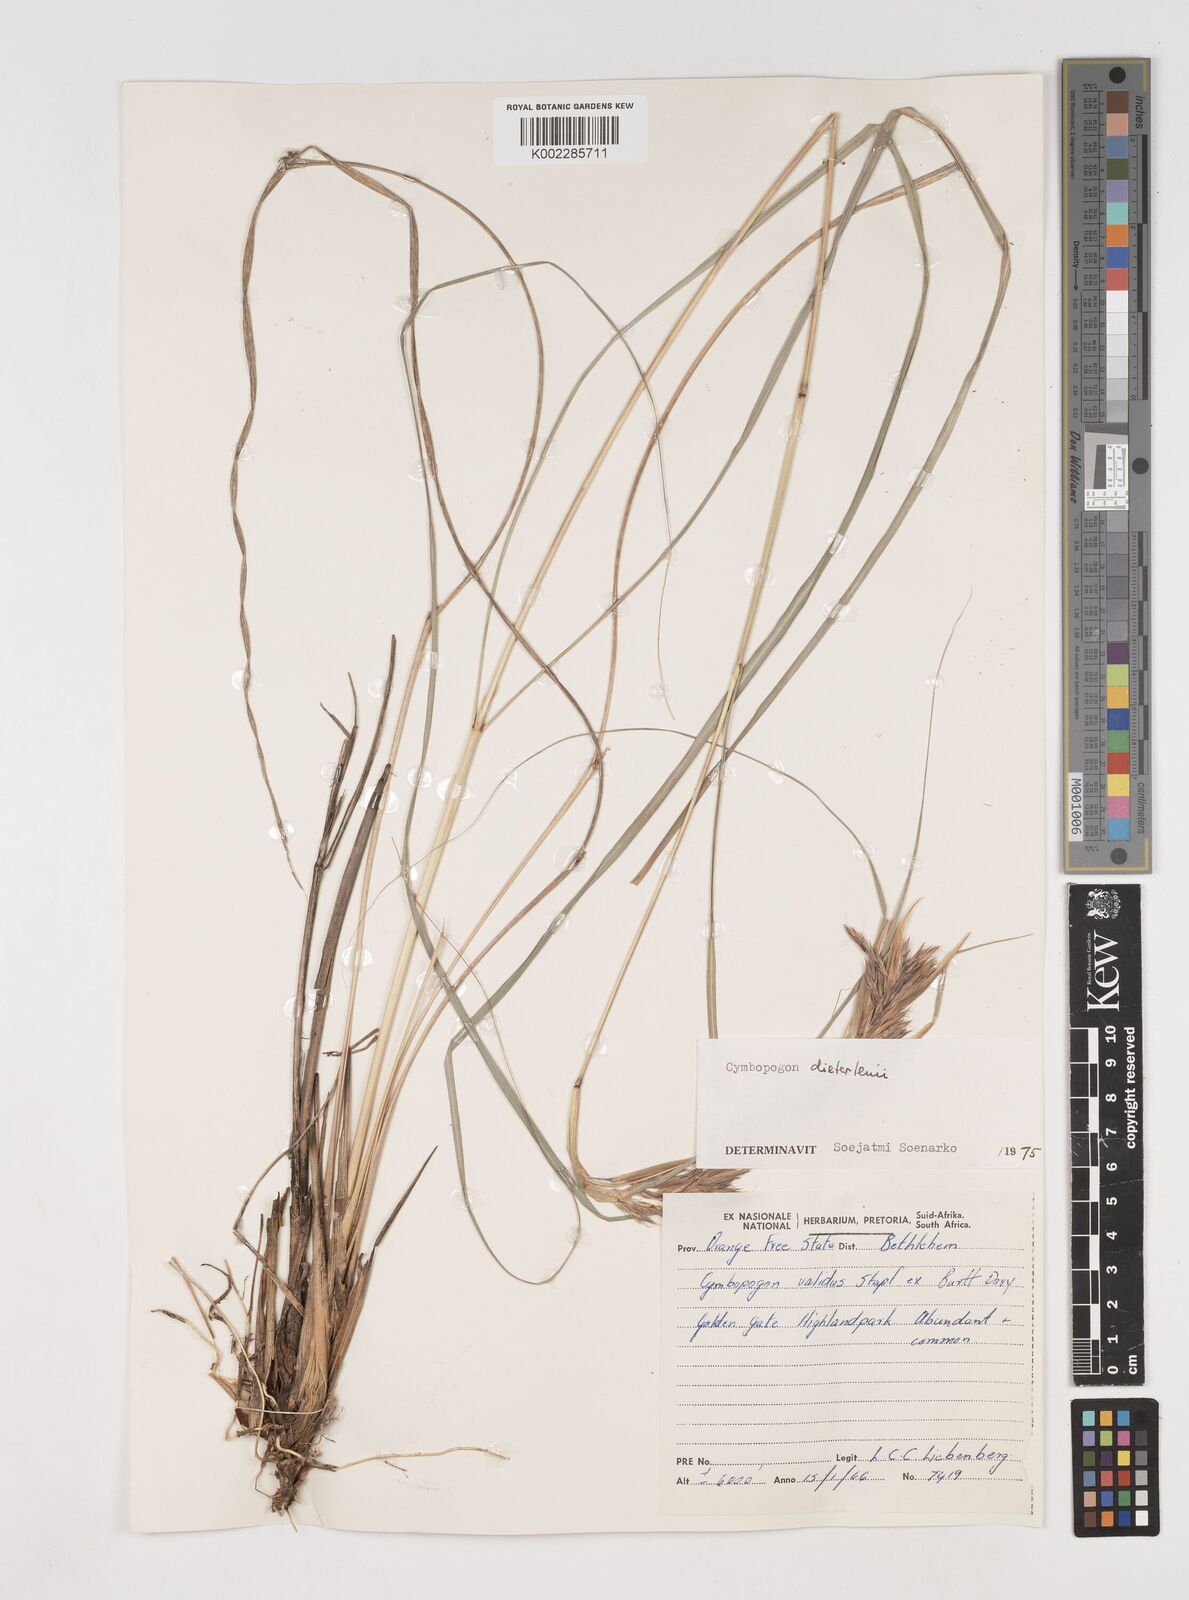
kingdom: Plantae
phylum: Tracheophyta
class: Liliopsida
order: Poales
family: Poaceae
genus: Cymbopogon
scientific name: Cymbopogon dieterlenii
